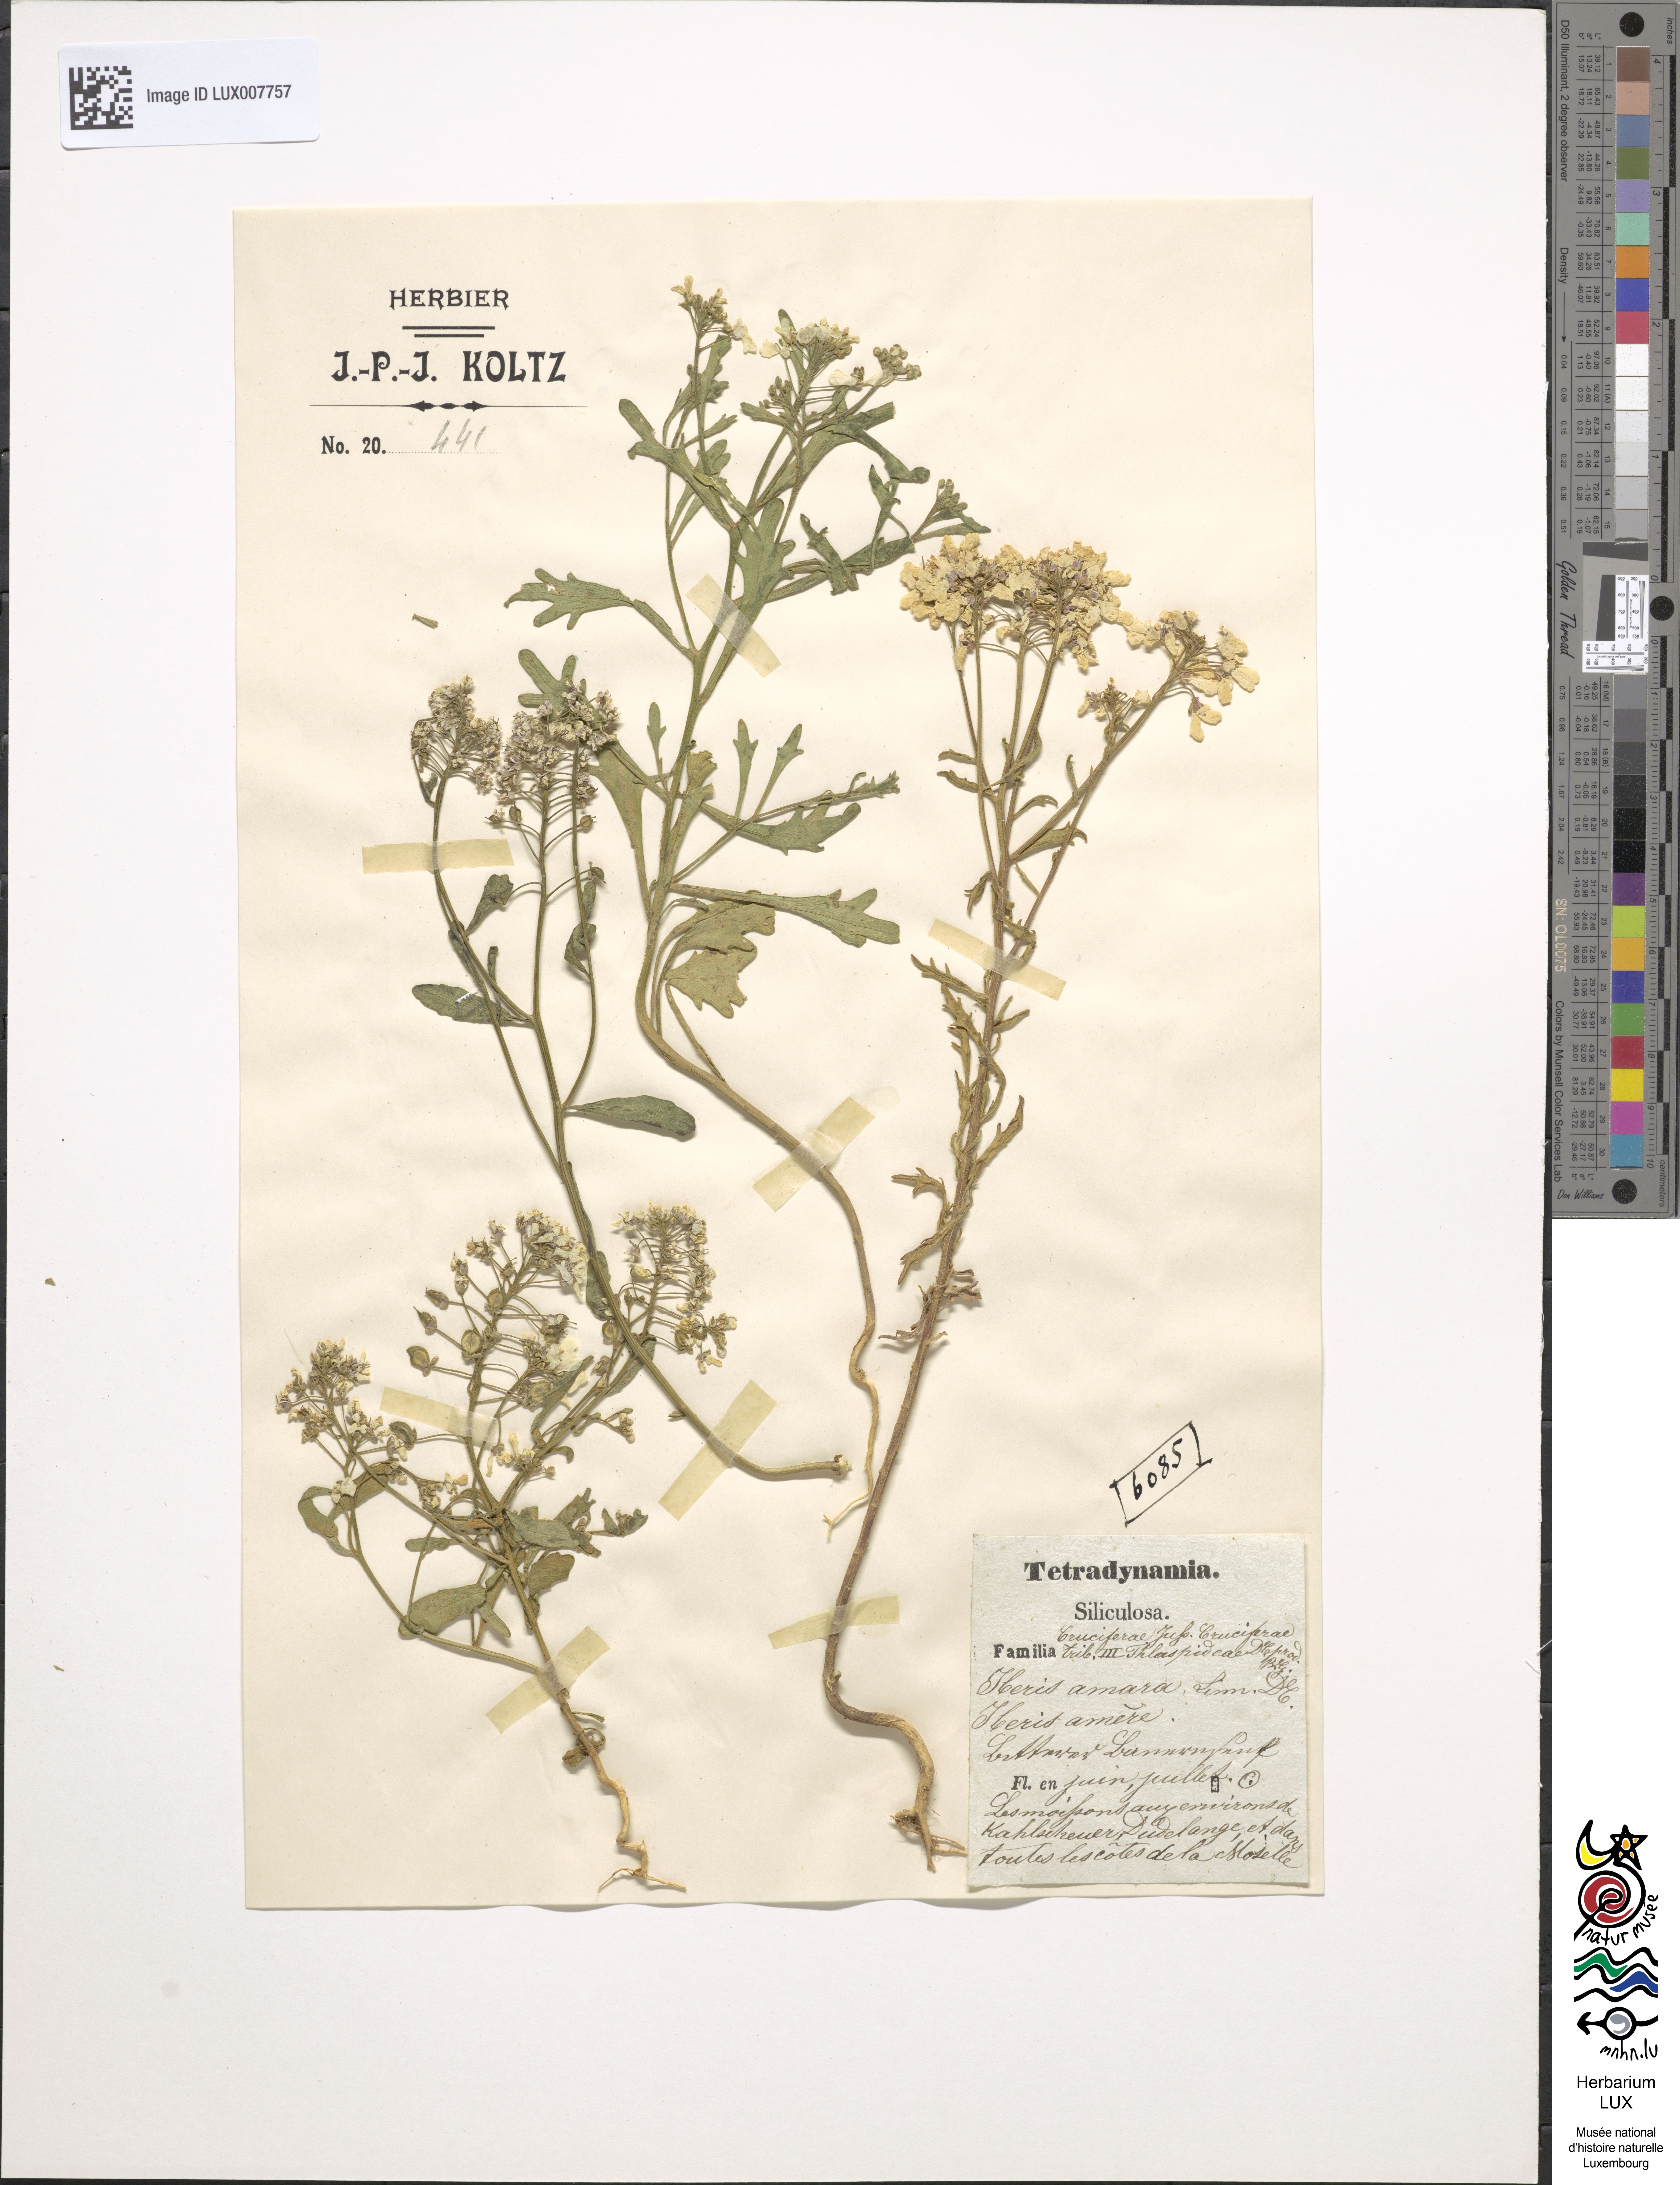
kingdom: Plantae
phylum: Tracheophyta
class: Magnoliopsida
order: Brassicales
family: Brassicaceae
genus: Iberis
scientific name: Iberis amara
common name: Annual candytuft
